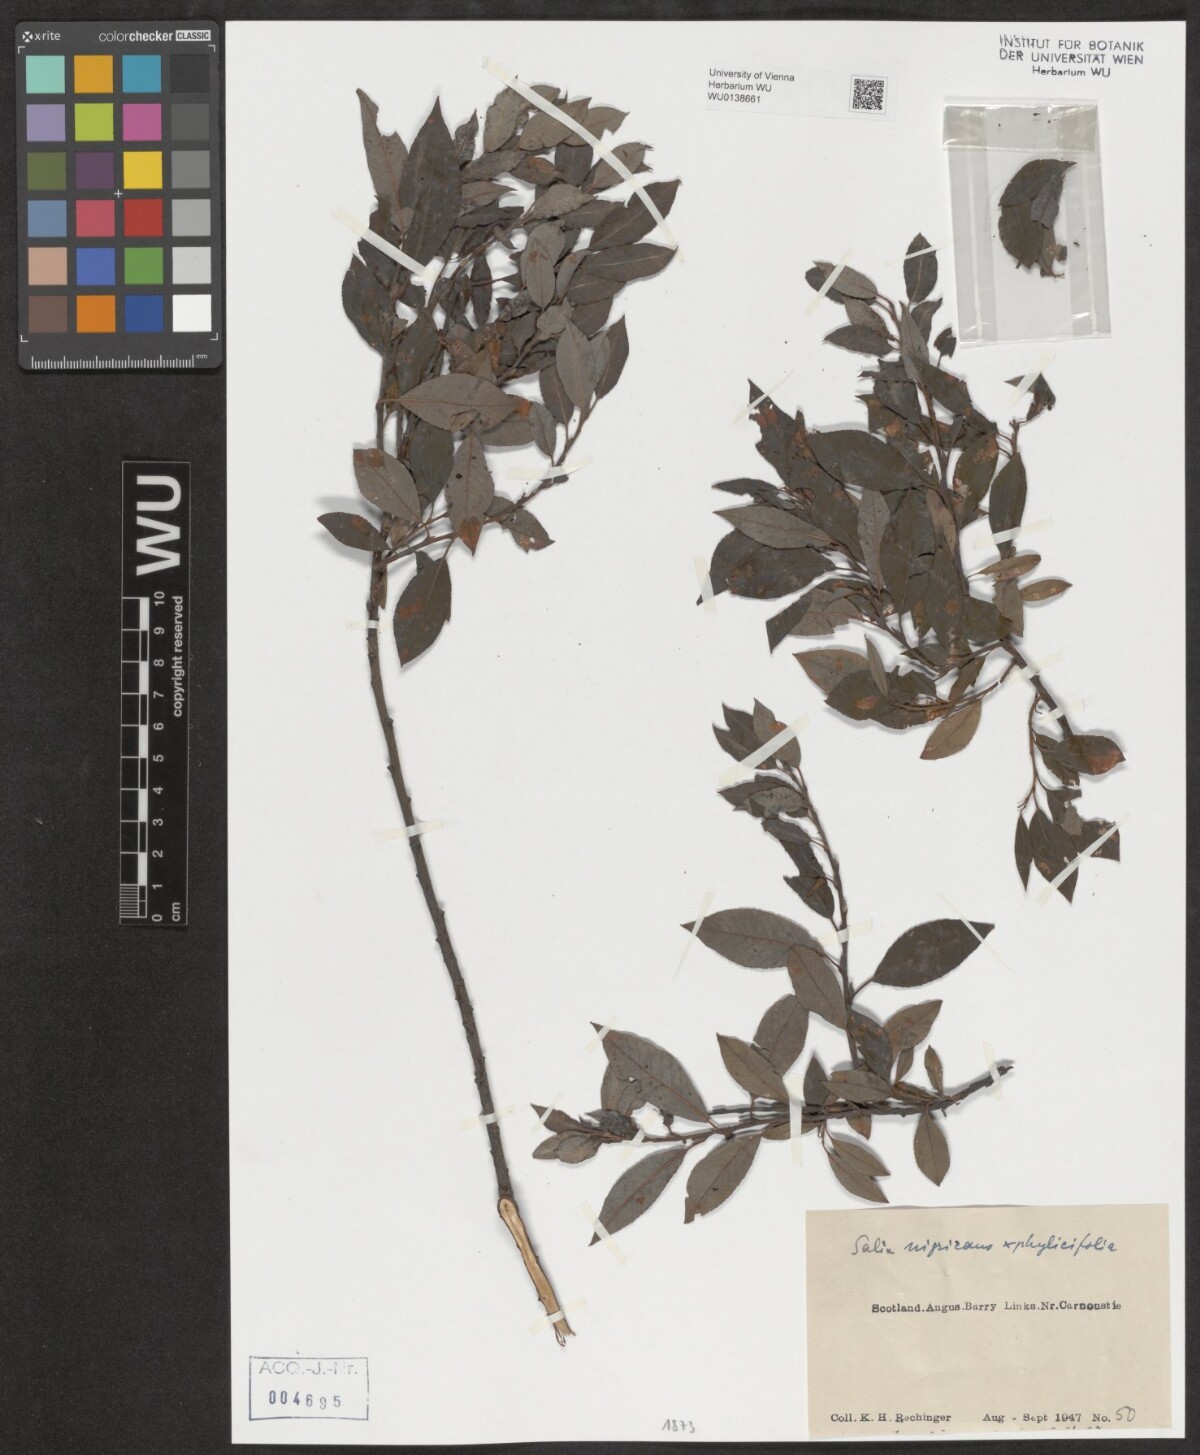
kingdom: Plantae
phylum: Tracheophyta
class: Magnoliopsida
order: Malpighiales
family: Salicaceae
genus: Salix
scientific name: Salix
